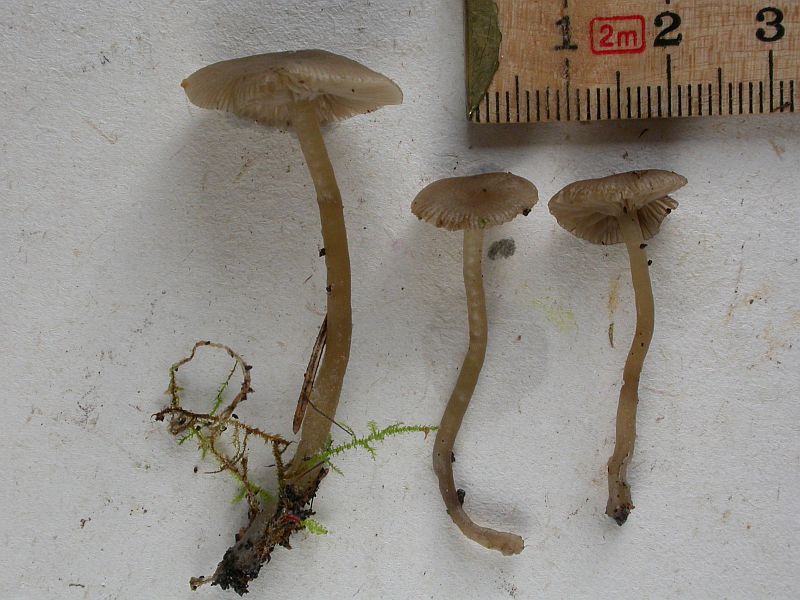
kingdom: Fungi
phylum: Basidiomycota
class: Agaricomycetes
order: Agaricales
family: Tricholomataceae
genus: Omphaliaster
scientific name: Omphaliaster asterosporus
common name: narrehat
